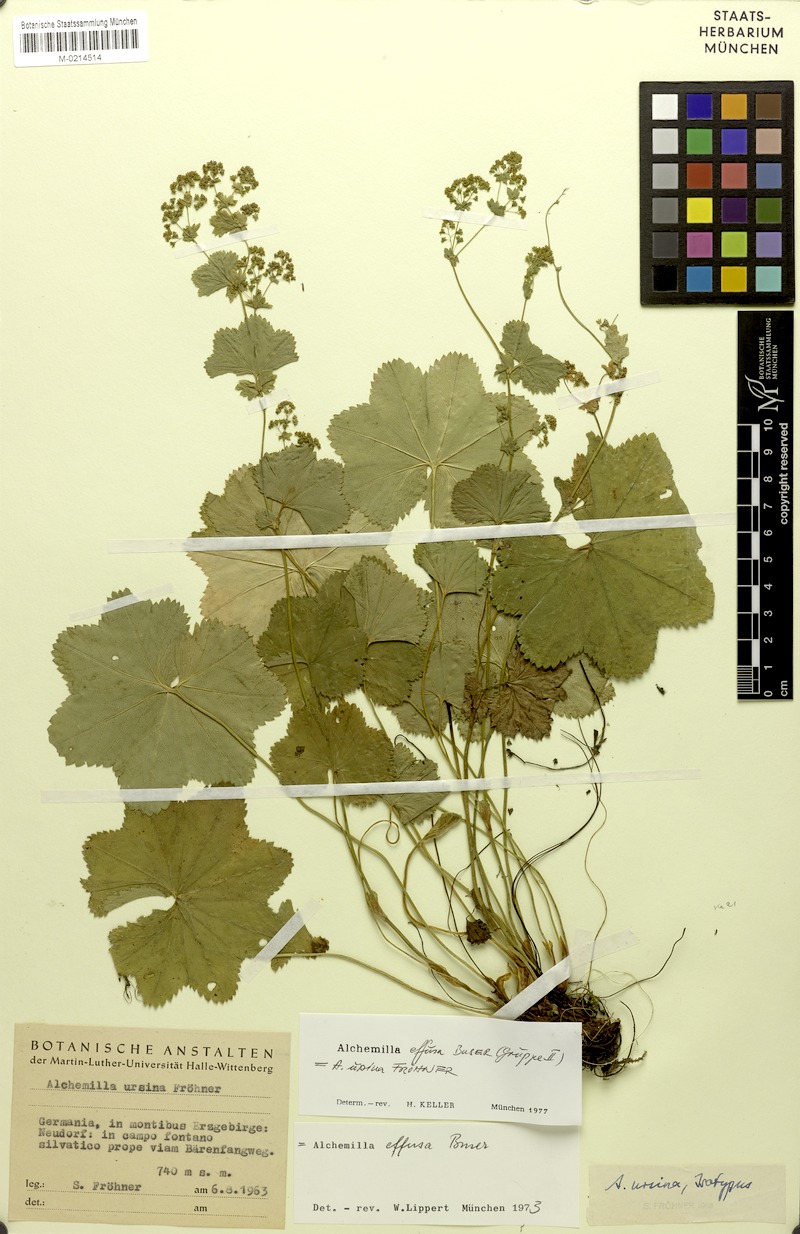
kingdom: Plantae
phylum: Tracheophyta
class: Magnoliopsida
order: Rosales
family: Rosaceae
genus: Alchemilla
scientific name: Alchemilla effusa
